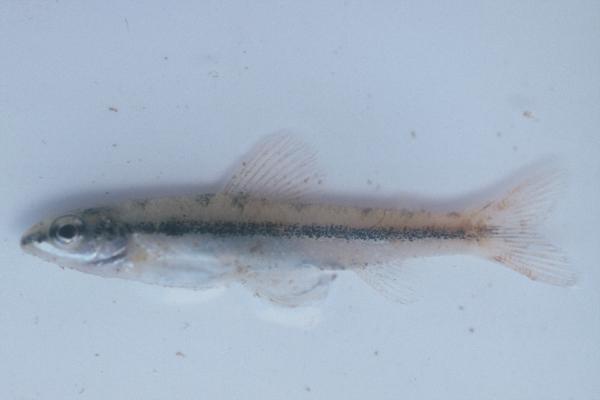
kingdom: Animalia
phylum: Chordata
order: Characiformes
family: Distichodontidae
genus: Nannocharax
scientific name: Nannocharax macropterus
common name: Broad-barred citharine
